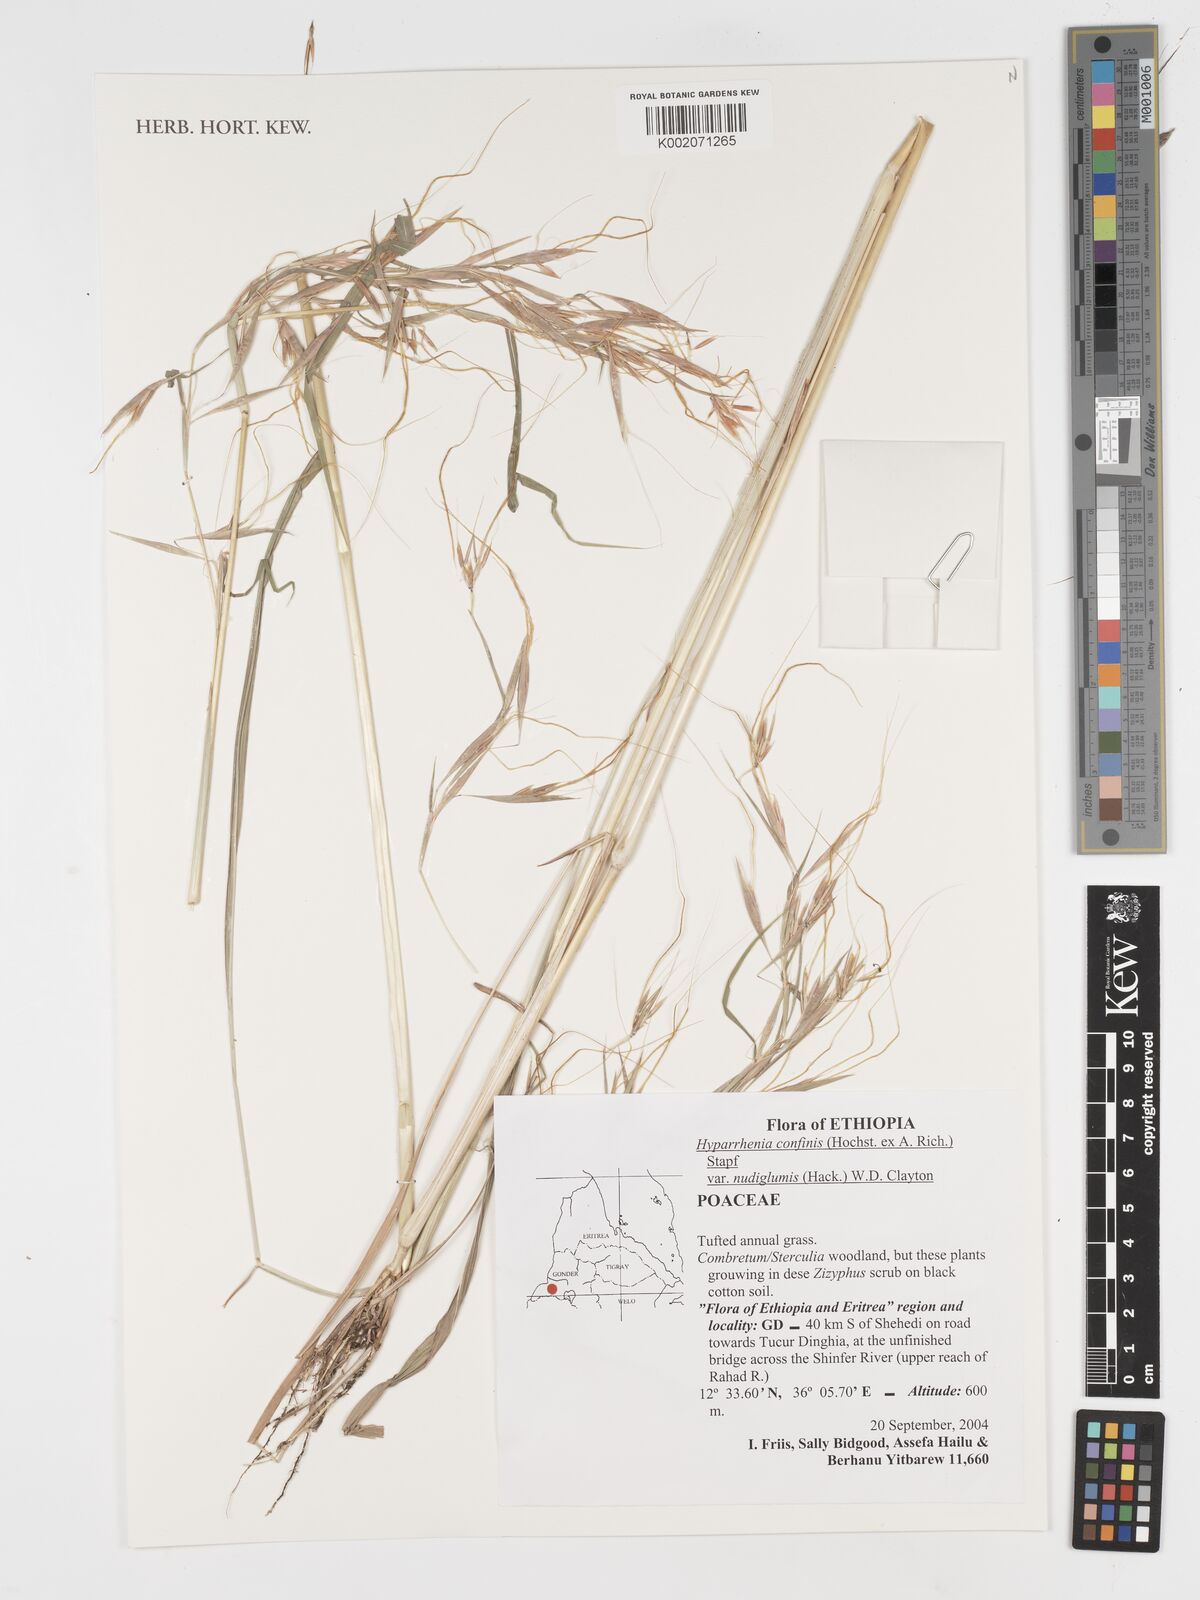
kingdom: Plantae
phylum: Tracheophyta
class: Liliopsida
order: Poales
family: Poaceae
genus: Hyparrhenia
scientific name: Hyparrhenia confinis
